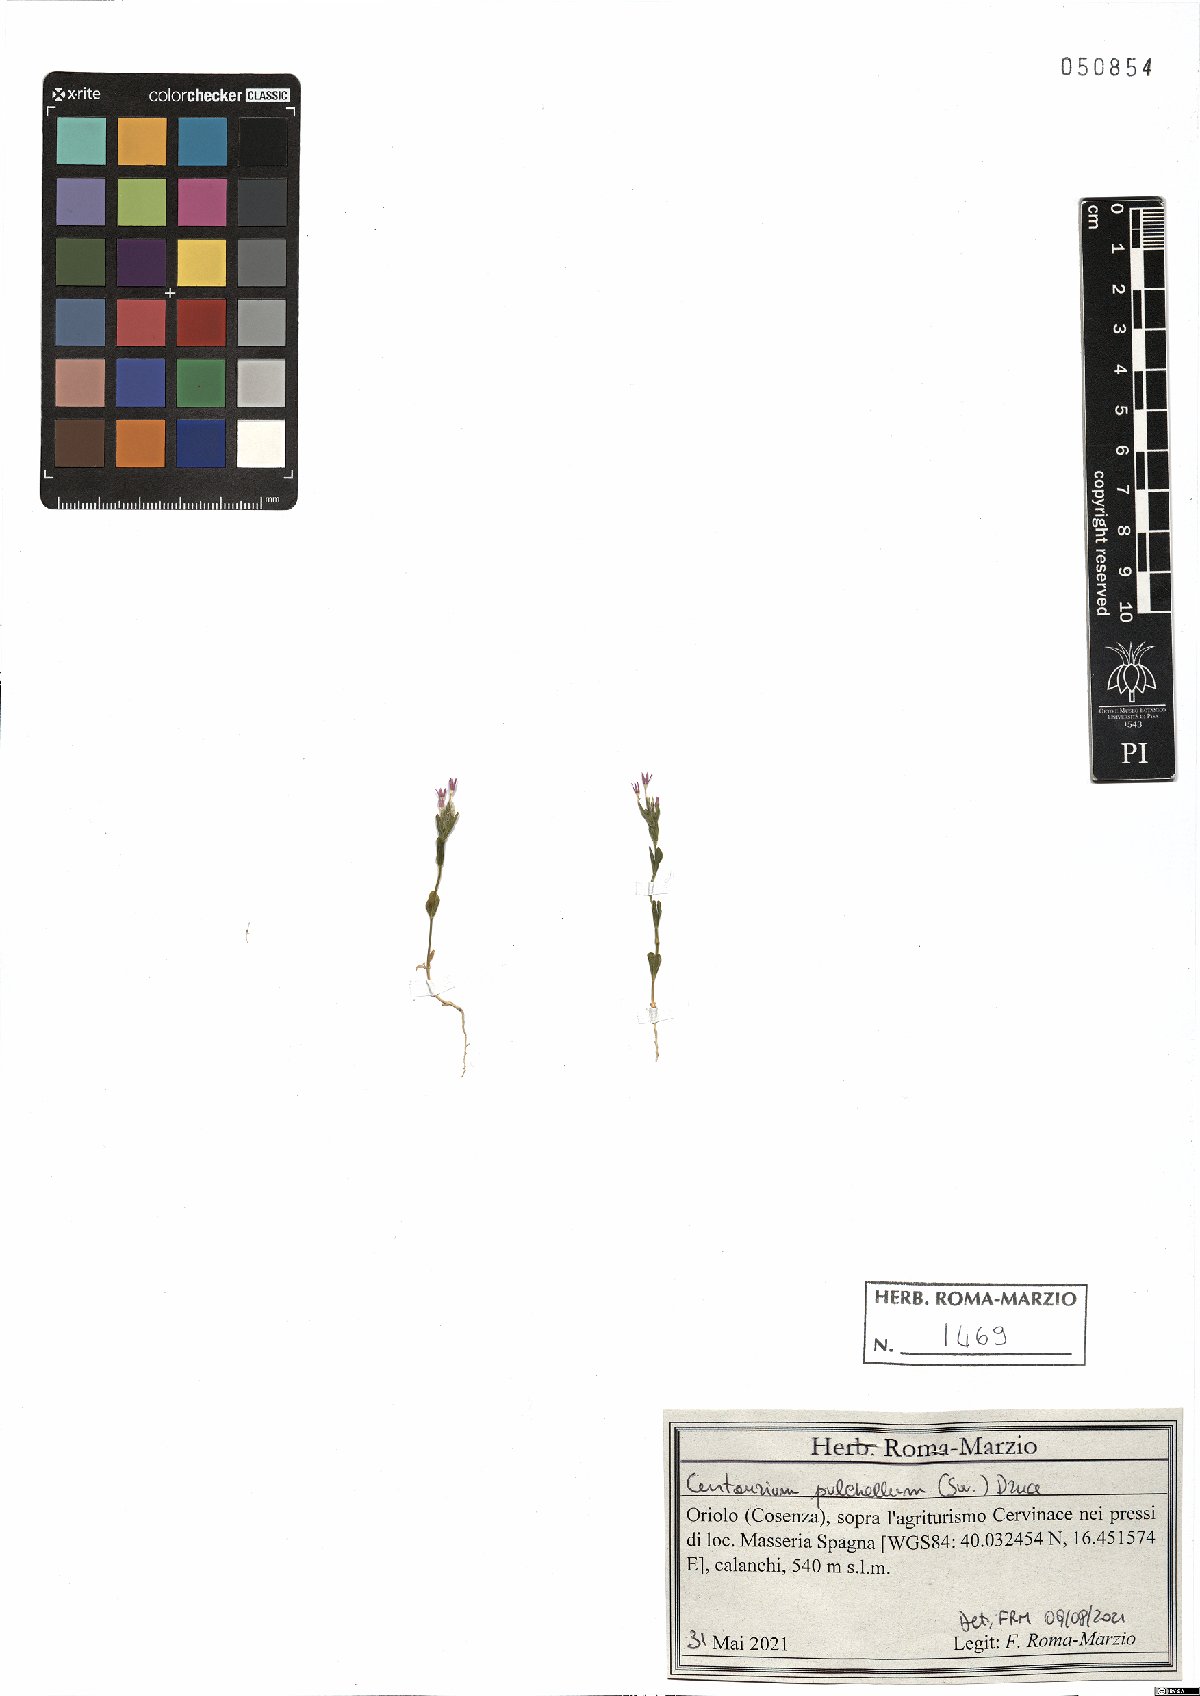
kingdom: Plantae
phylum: Tracheophyta
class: Magnoliopsida
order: Gentianales
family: Gentianaceae
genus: Centaurium
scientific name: Centaurium pulchellum
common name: Lesser centaury
